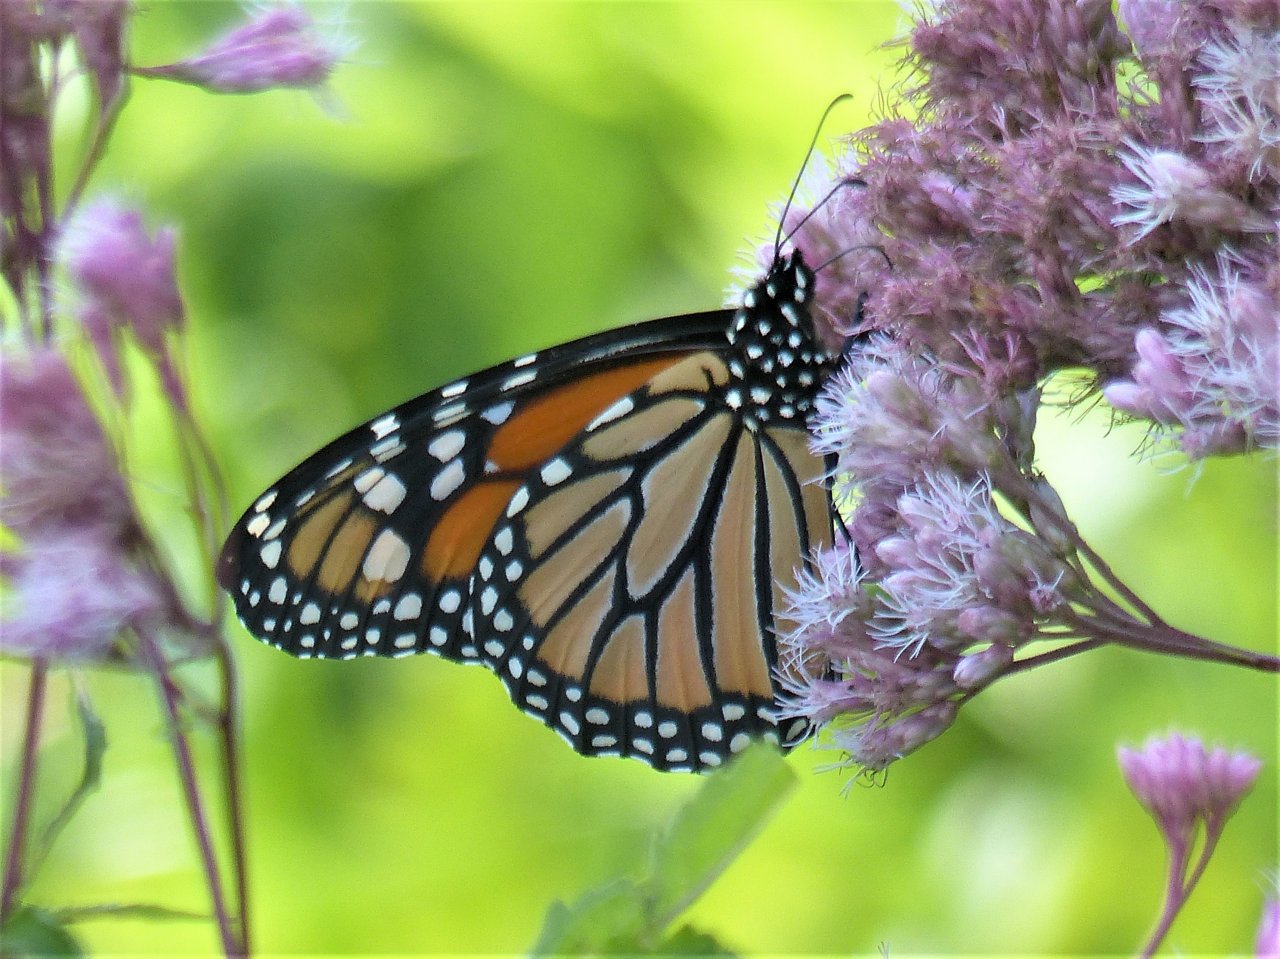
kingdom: Animalia
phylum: Arthropoda
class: Insecta
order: Lepidoptera
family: Nymphalidae
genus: Danaus
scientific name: Danaus plexippus
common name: Monarch
